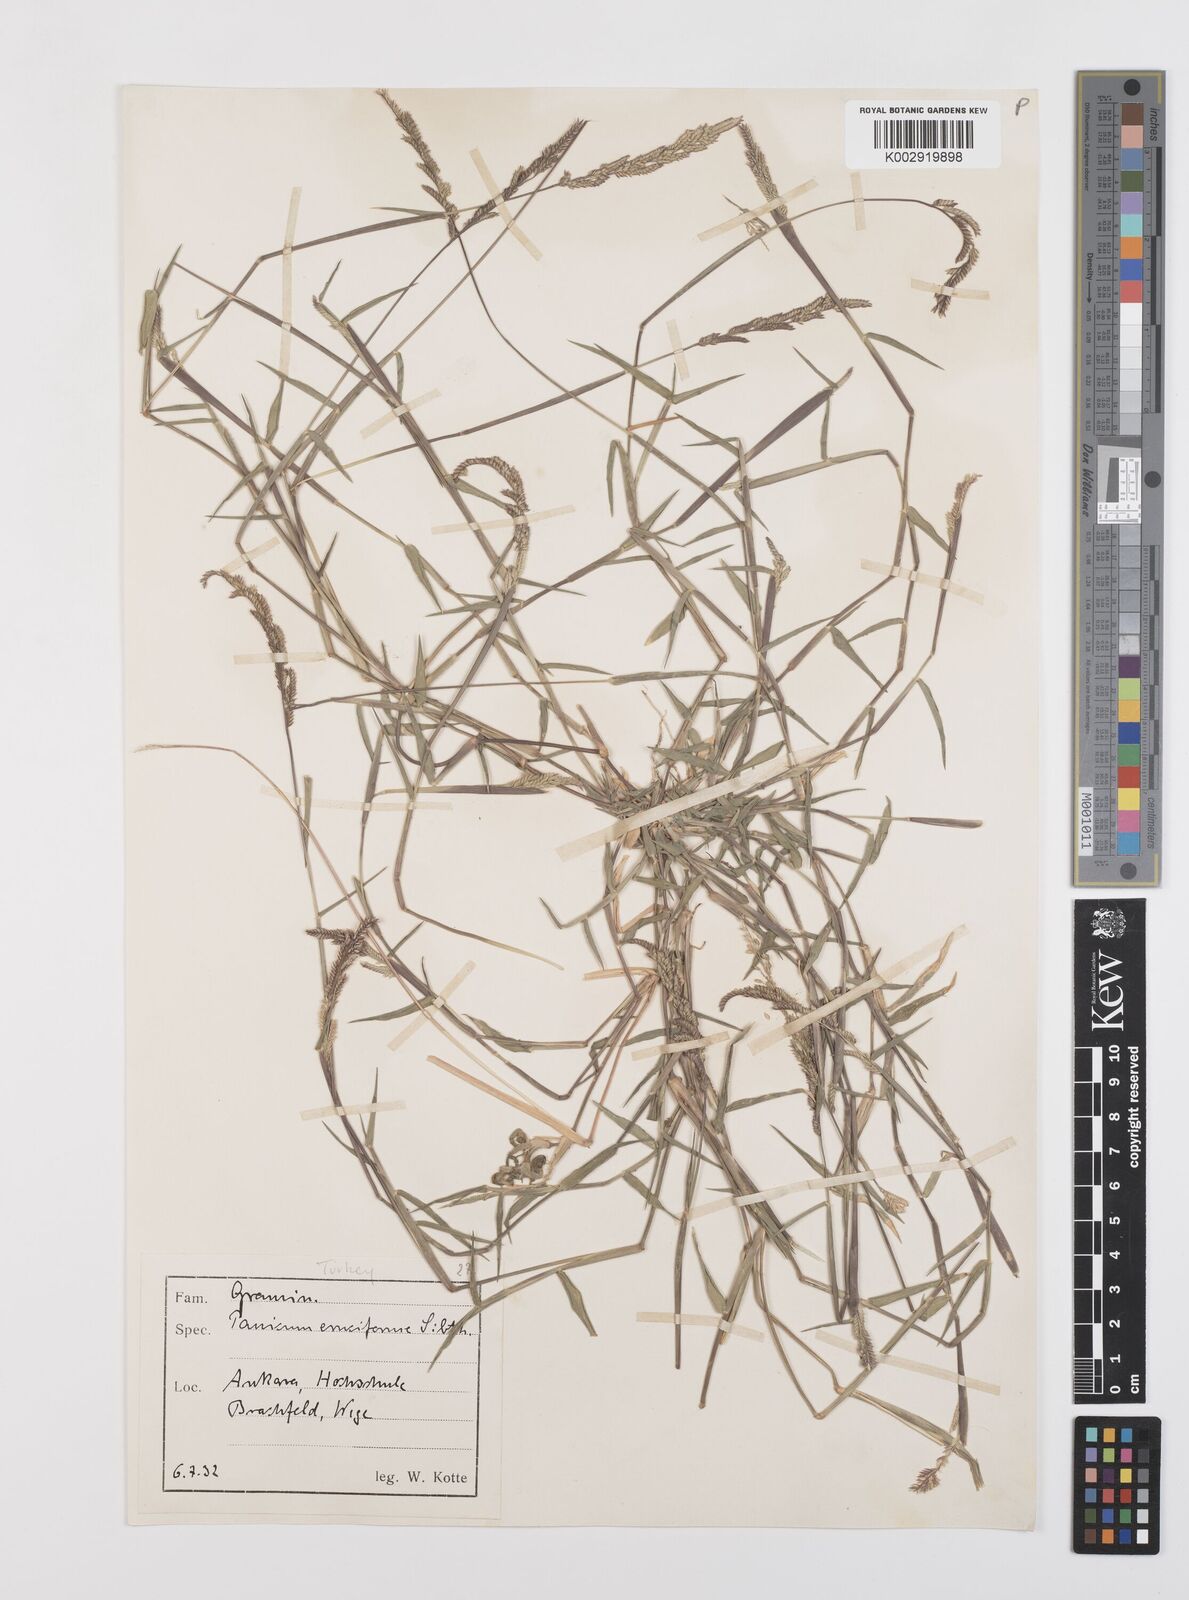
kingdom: Plantae
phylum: Tracheophyta
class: Liliopsida
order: Poales
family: Poaceae
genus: Moorochloa
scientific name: Moorochloa eruciformis
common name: Sweet signalgrass
